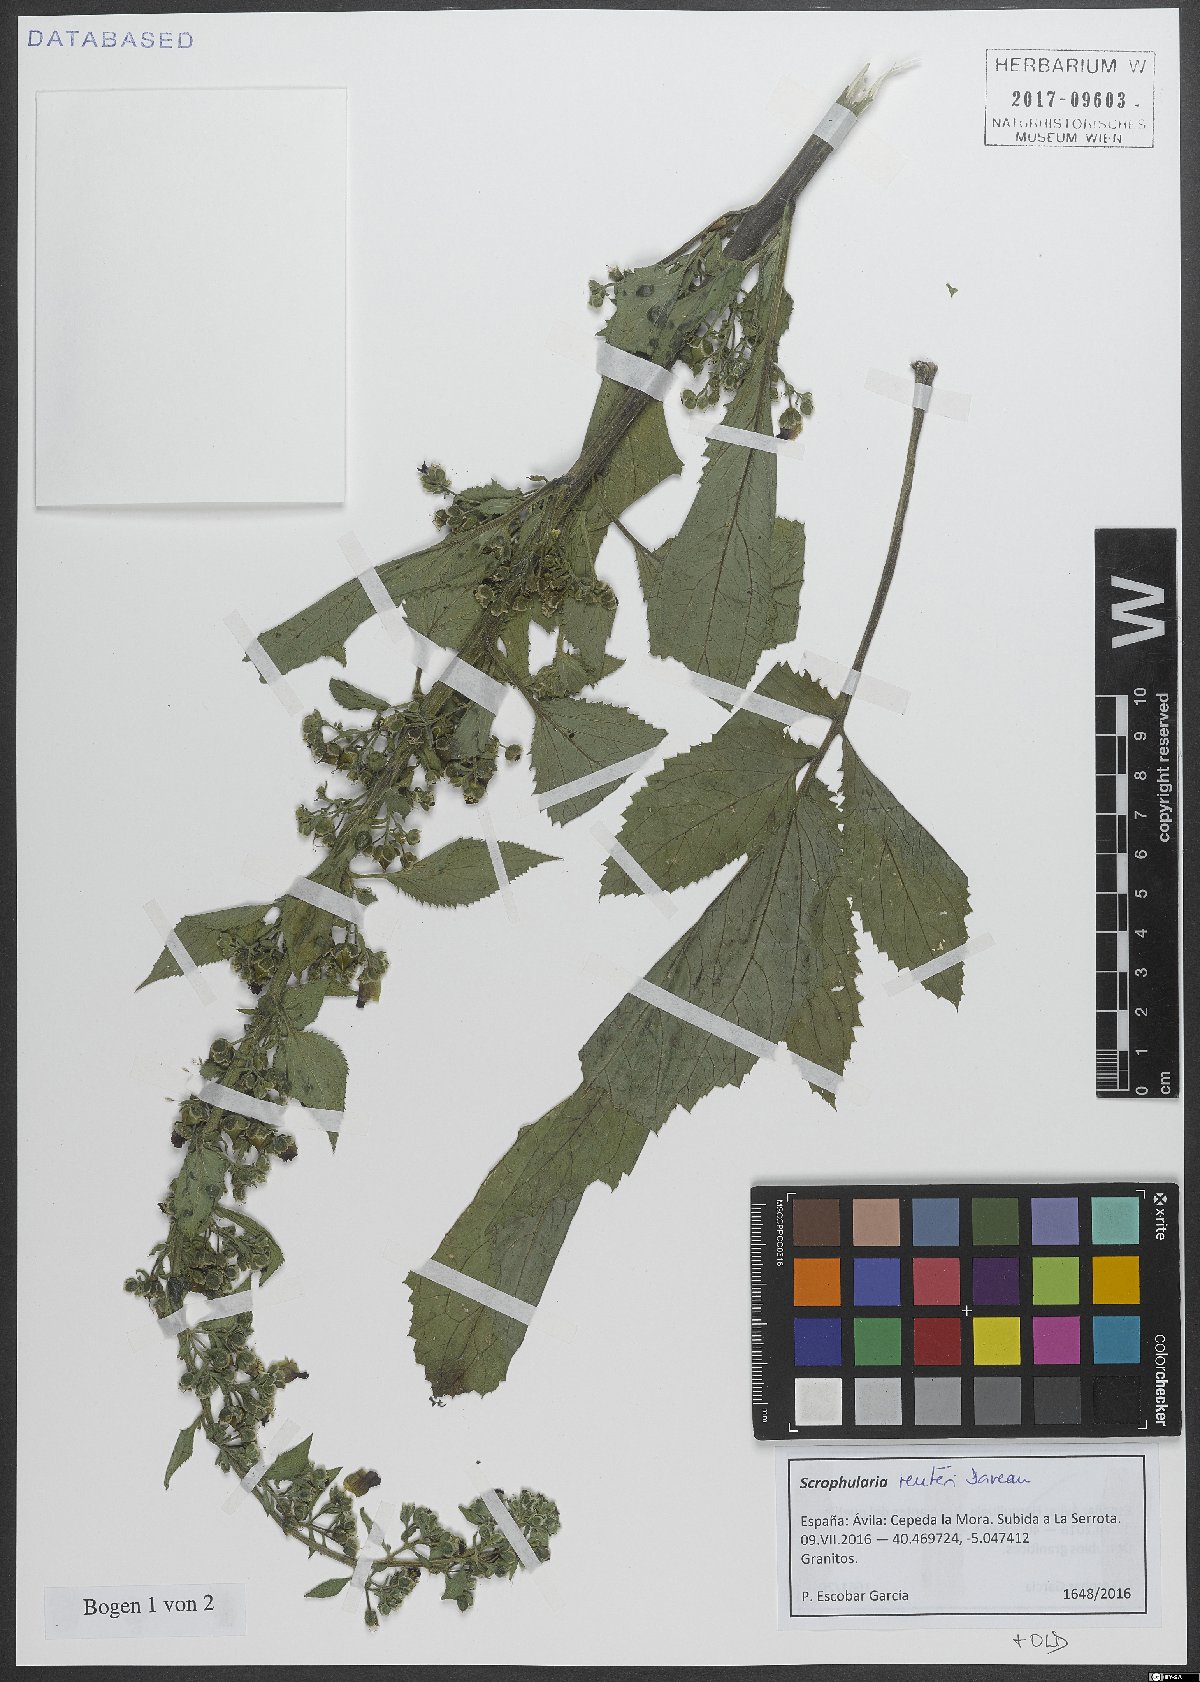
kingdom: Plantae
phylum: Tracheophyta
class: Magnoliopsida
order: Lamiales
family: Scrophulariaceae
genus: Scrophularia
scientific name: Scrophularia reuteri
